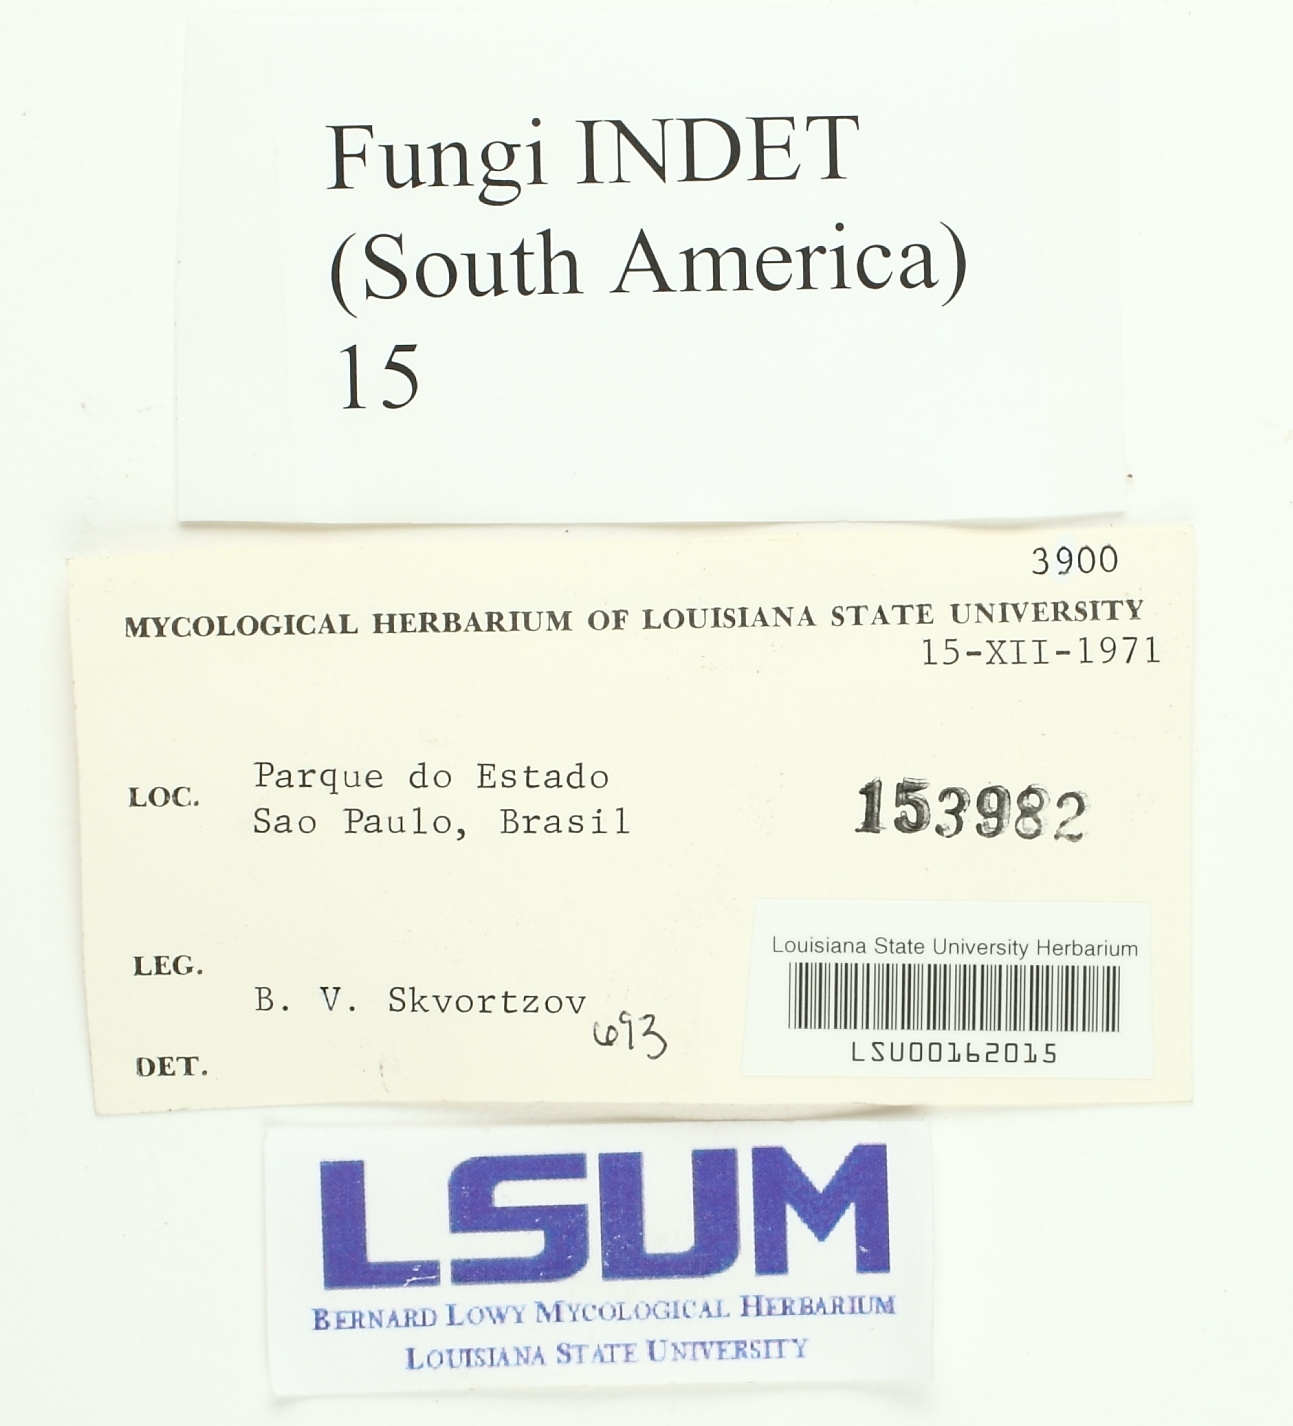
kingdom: Fungi
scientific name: Fungi
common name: Fungi
